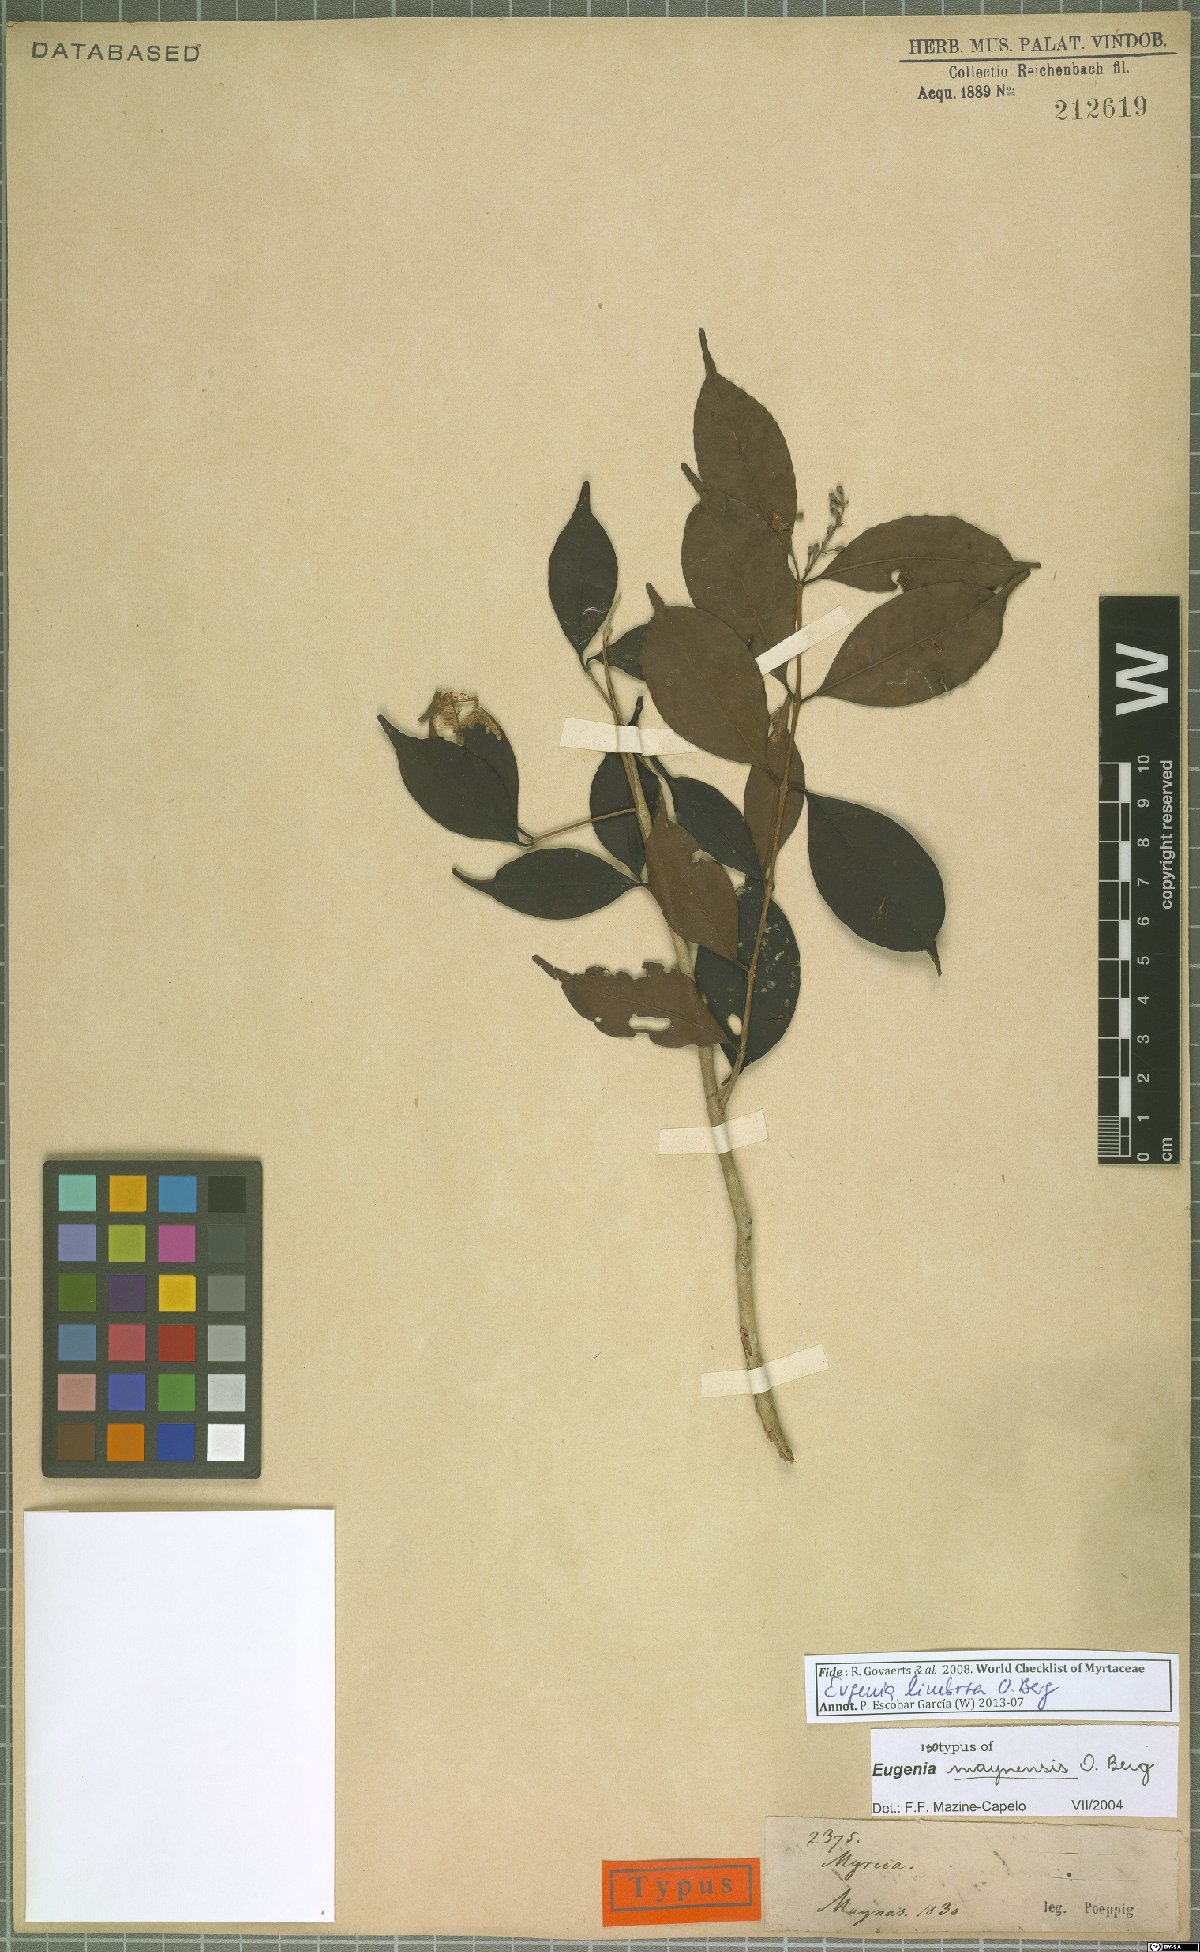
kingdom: Plantae
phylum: Tracheophyta
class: Magnoliopsida
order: Myrtales
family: Myrtaceae
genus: Eugenia
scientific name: Eugenia limbosa
